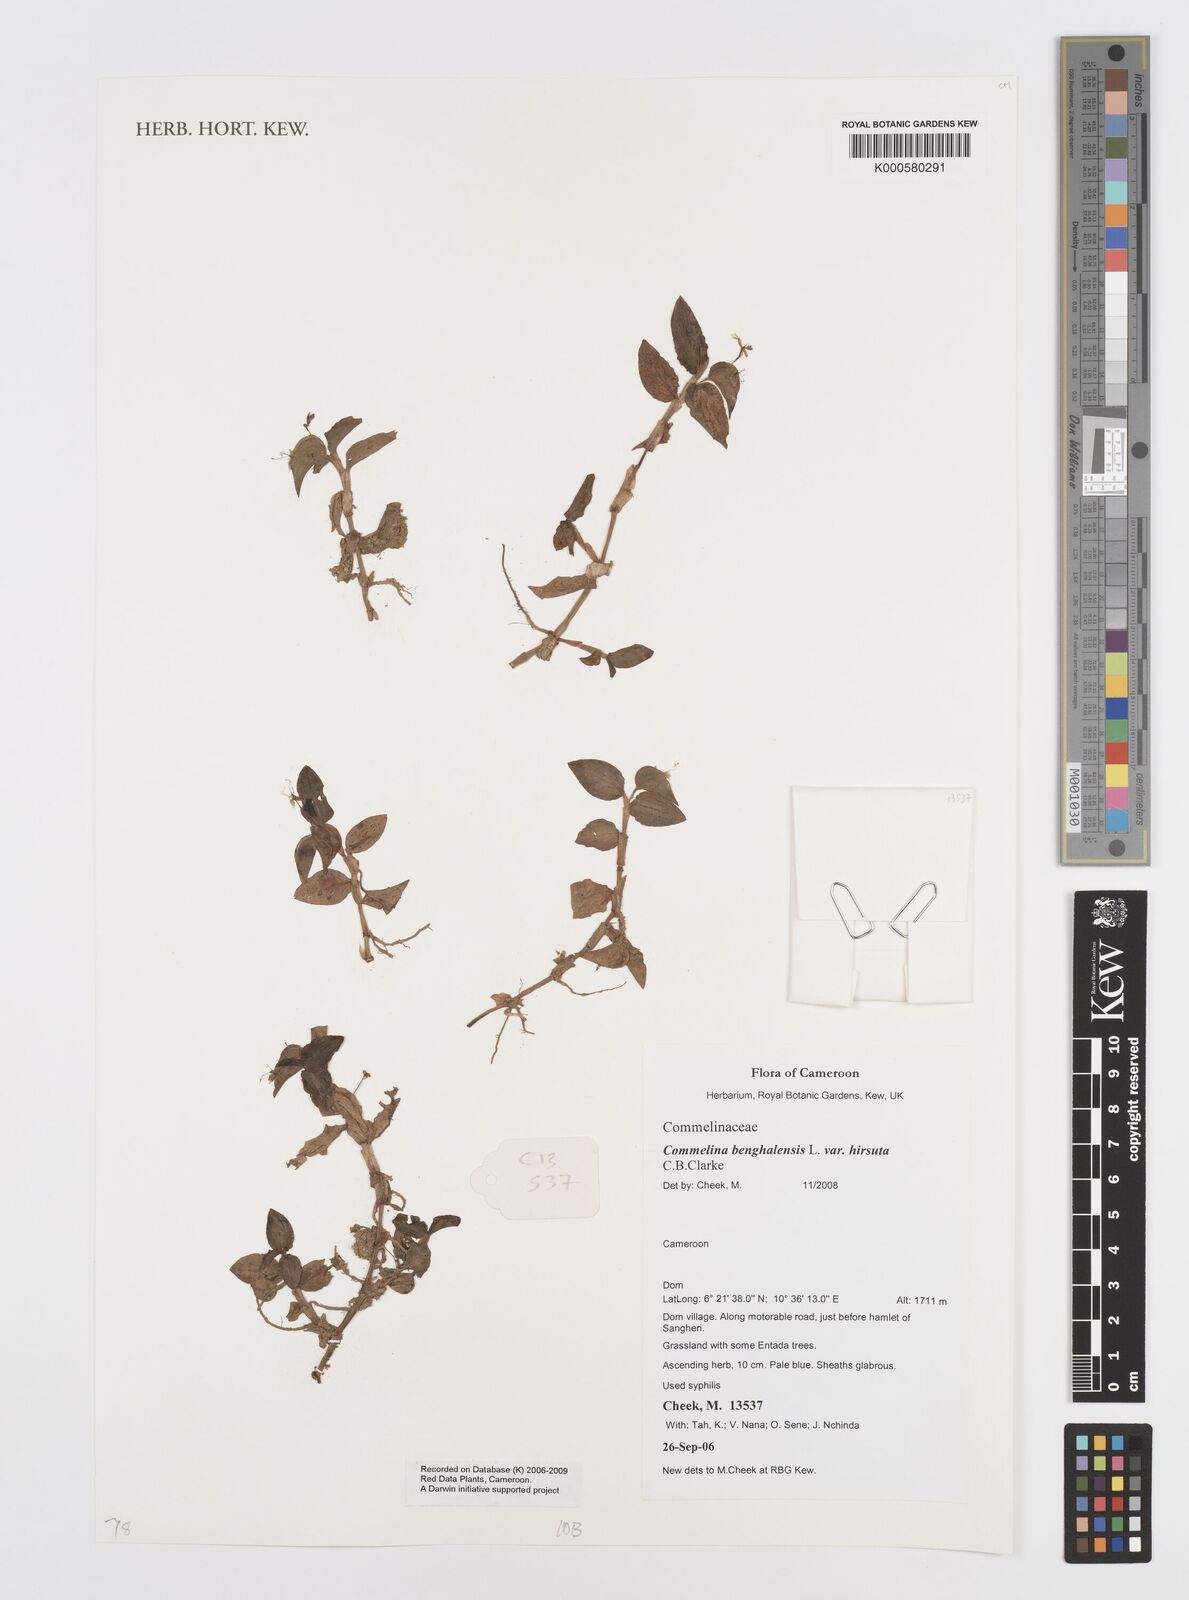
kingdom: Plantae
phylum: Tracheophyta
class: Liliopsida
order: Commelinales
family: Commelinaceae
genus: Commelina
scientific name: Commelina benghalensis
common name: Jio
